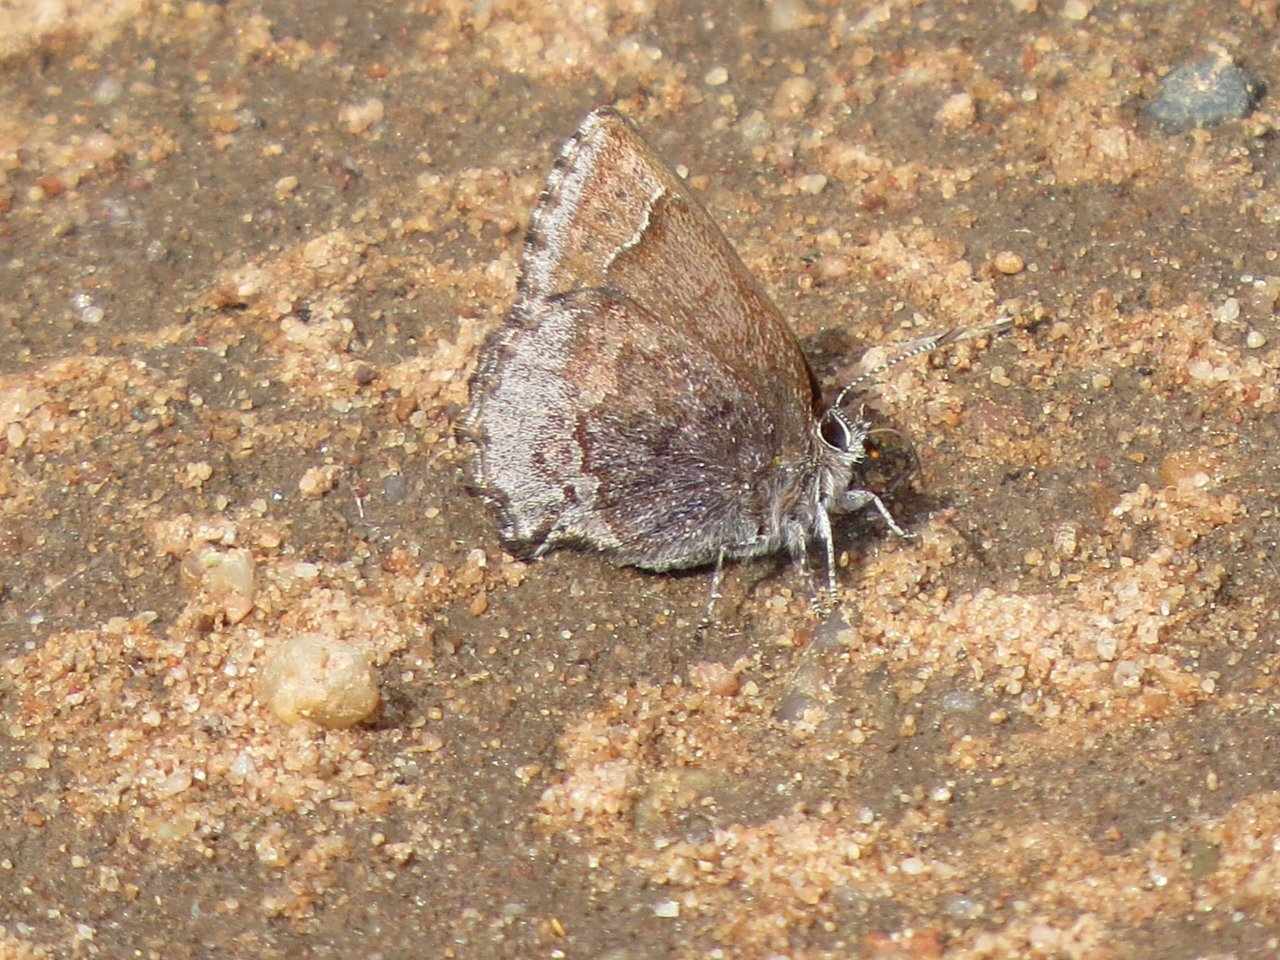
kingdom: Animalia
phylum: Arthropoda
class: Insecta
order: Lepidoptera
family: Lycaenidae
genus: Callophrys
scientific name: Callophrys polios
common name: Hoary Elfin
